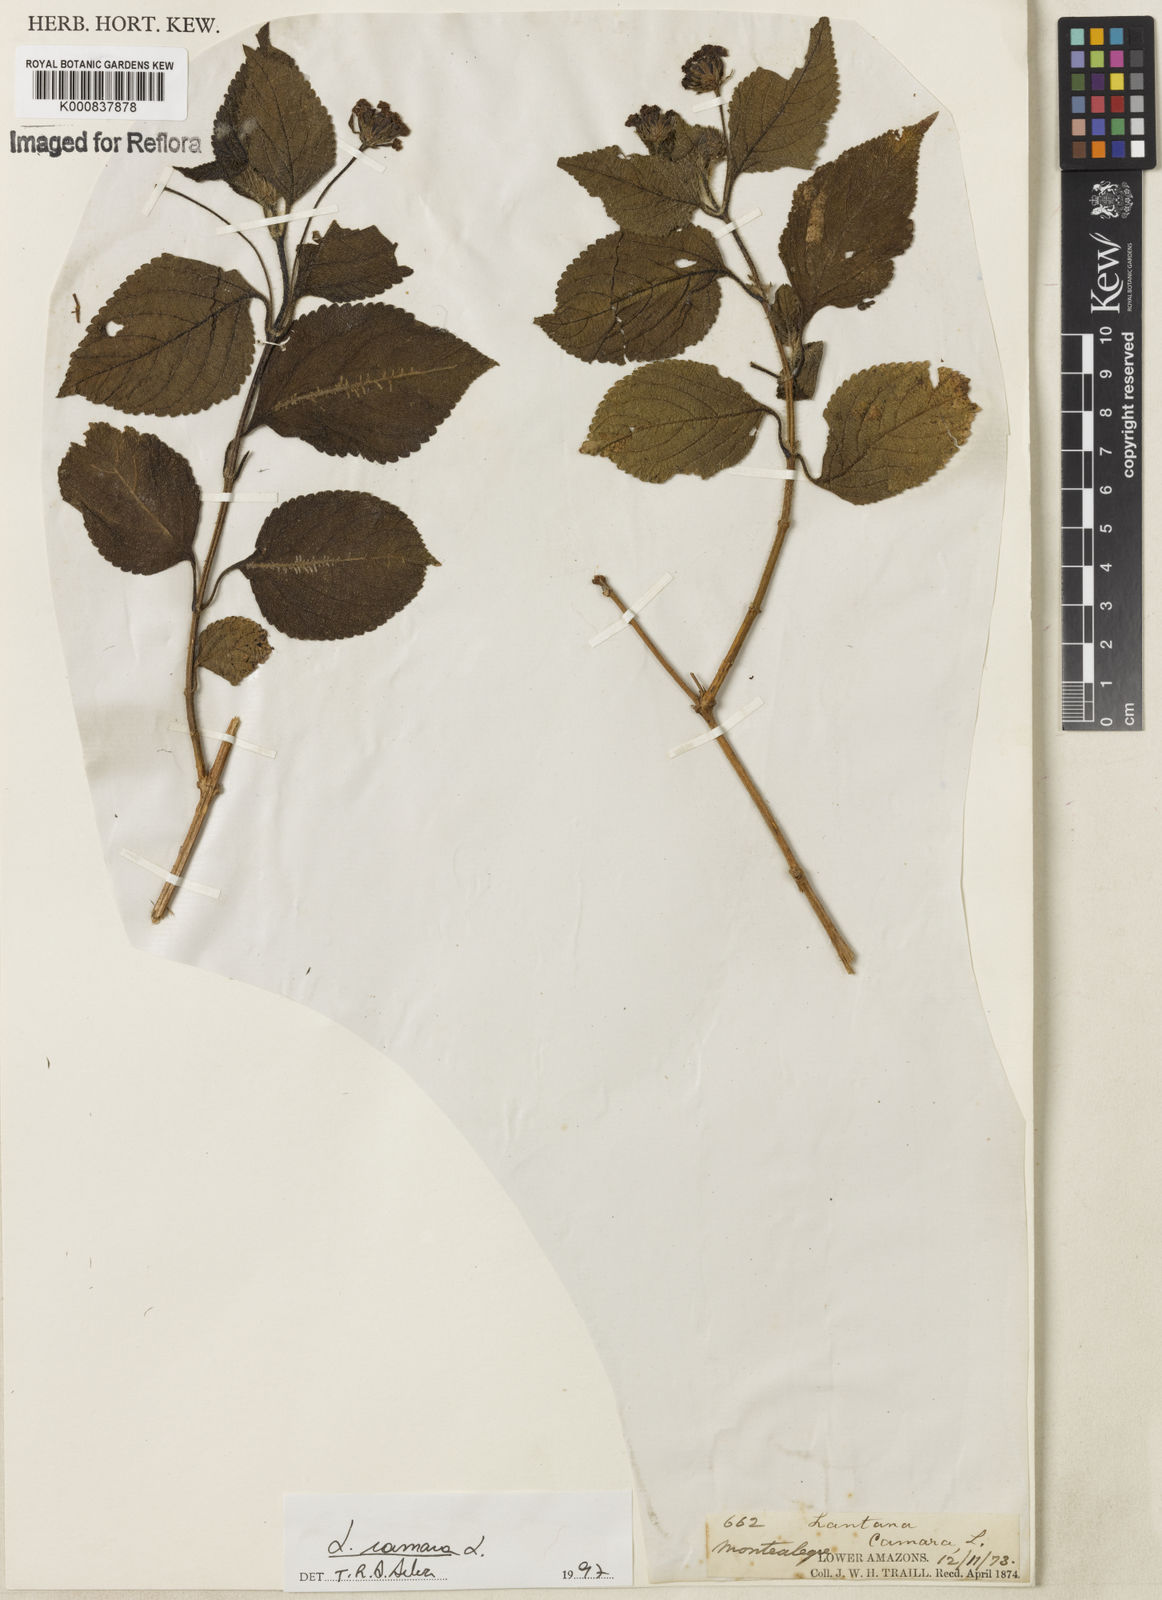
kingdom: Plantae
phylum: Tracheophyta
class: Magnoliopsida
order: Lamiales
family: Verbenaceae
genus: Lantana
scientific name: Lantana camara
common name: Lantana
